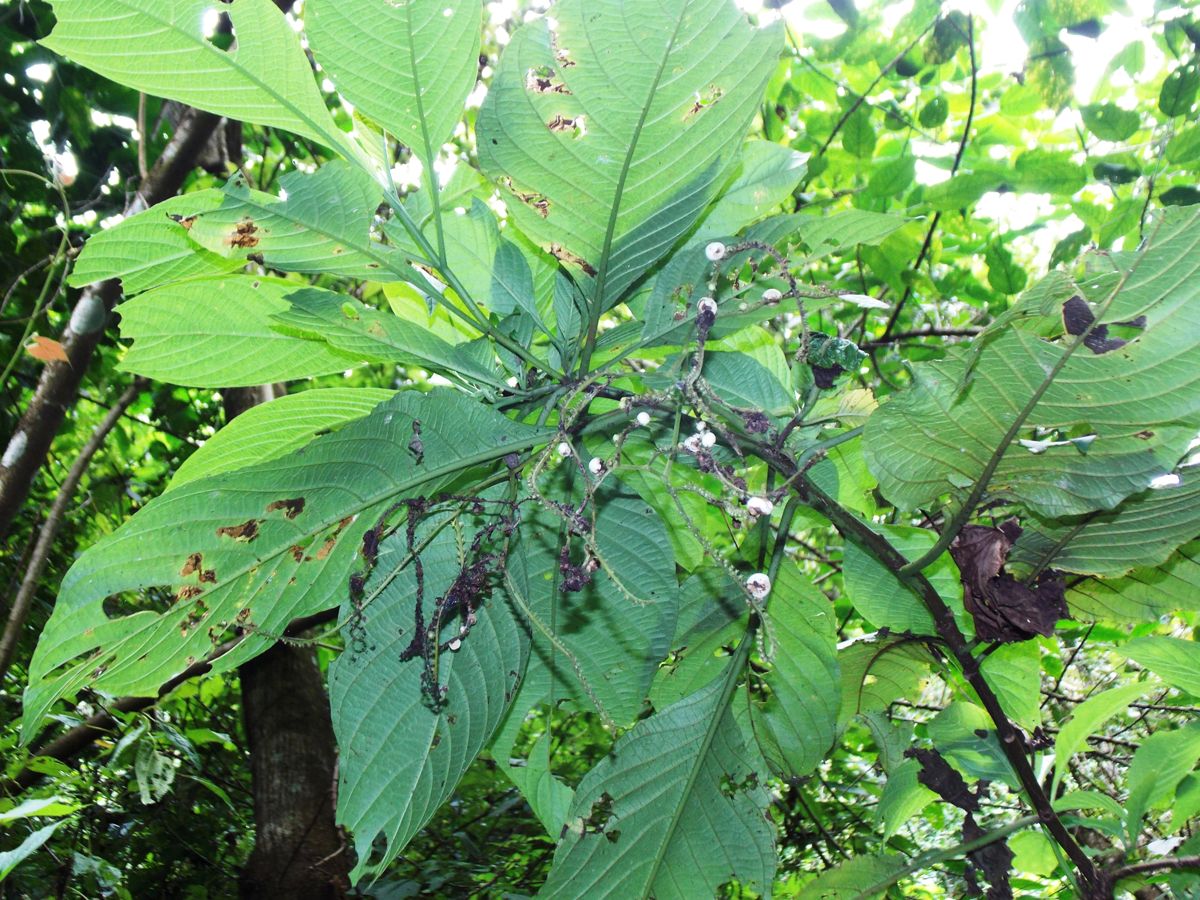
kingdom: Plantae
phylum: Tracheophyta
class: Magnoliopsida
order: Boraginales
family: Heliotropiaceae
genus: Heliotropium
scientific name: Heliotropium petiolare
